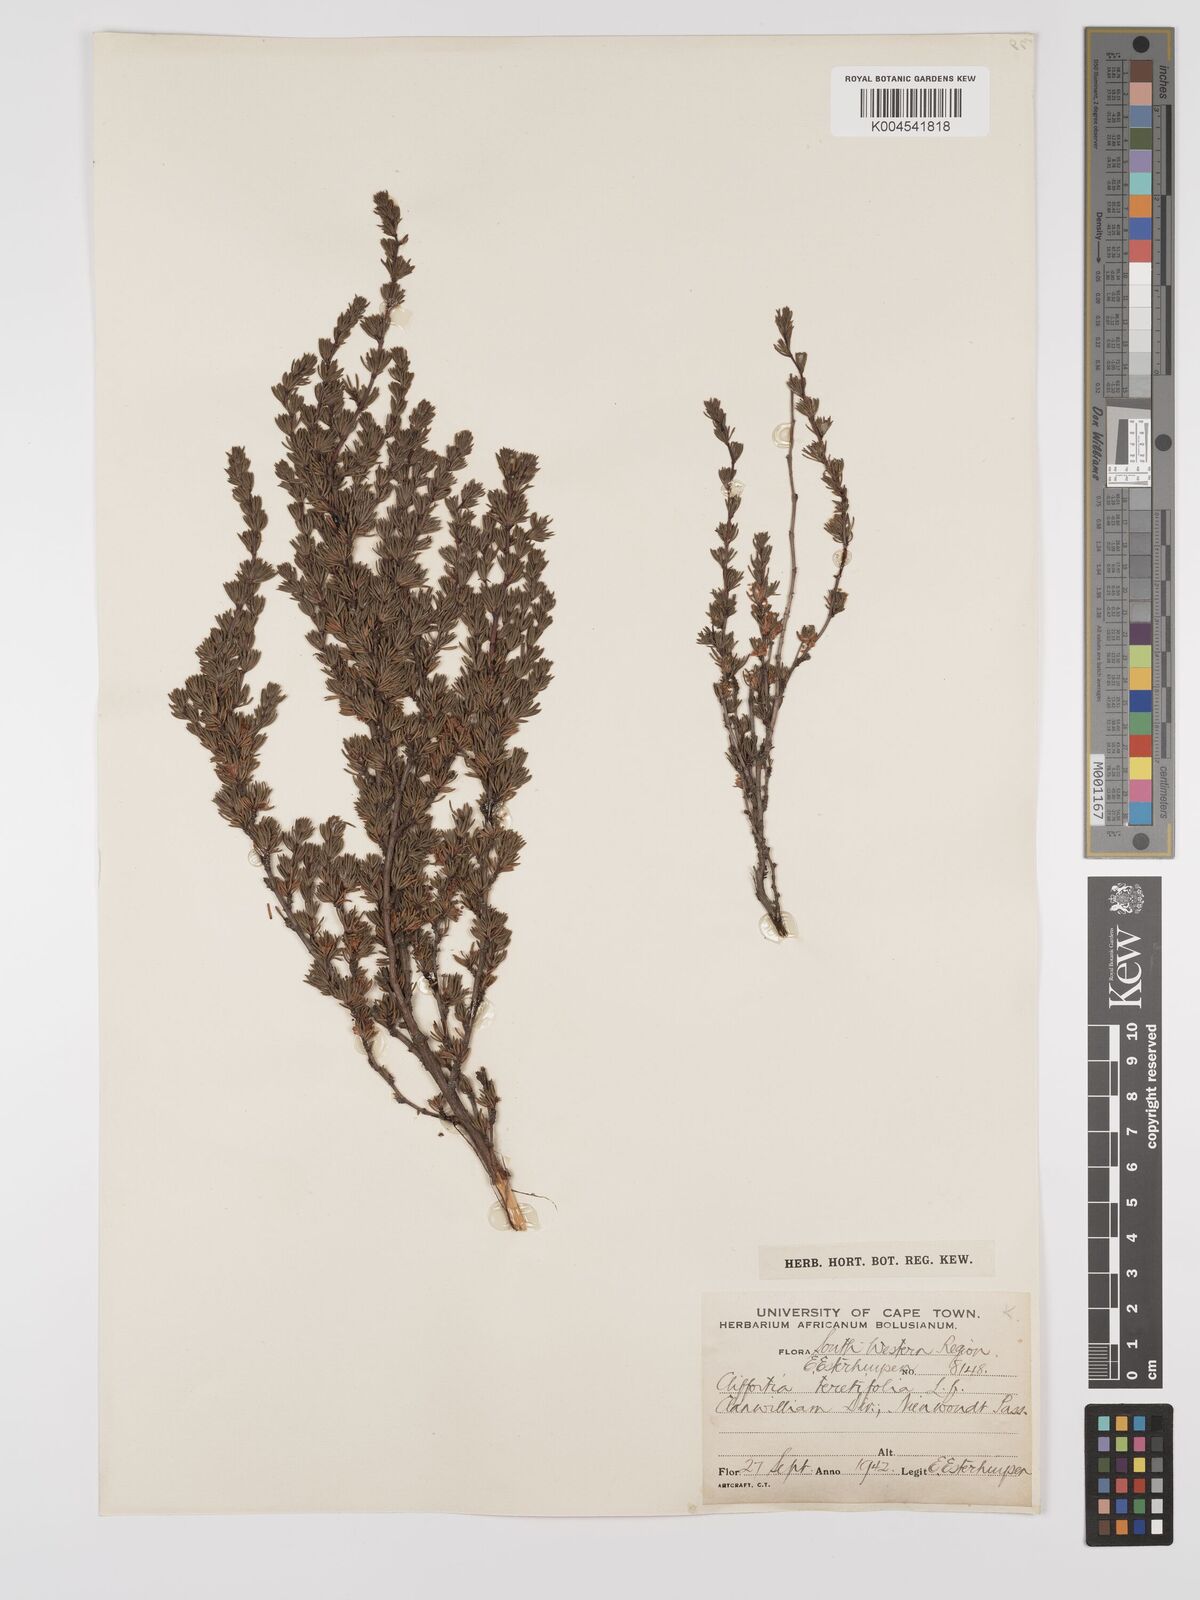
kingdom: Plantae
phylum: Tracheophyta
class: Magnoliopsida
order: Rosales
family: Rosaceae
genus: Cliffortia
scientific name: Cliffortia teretifolia
